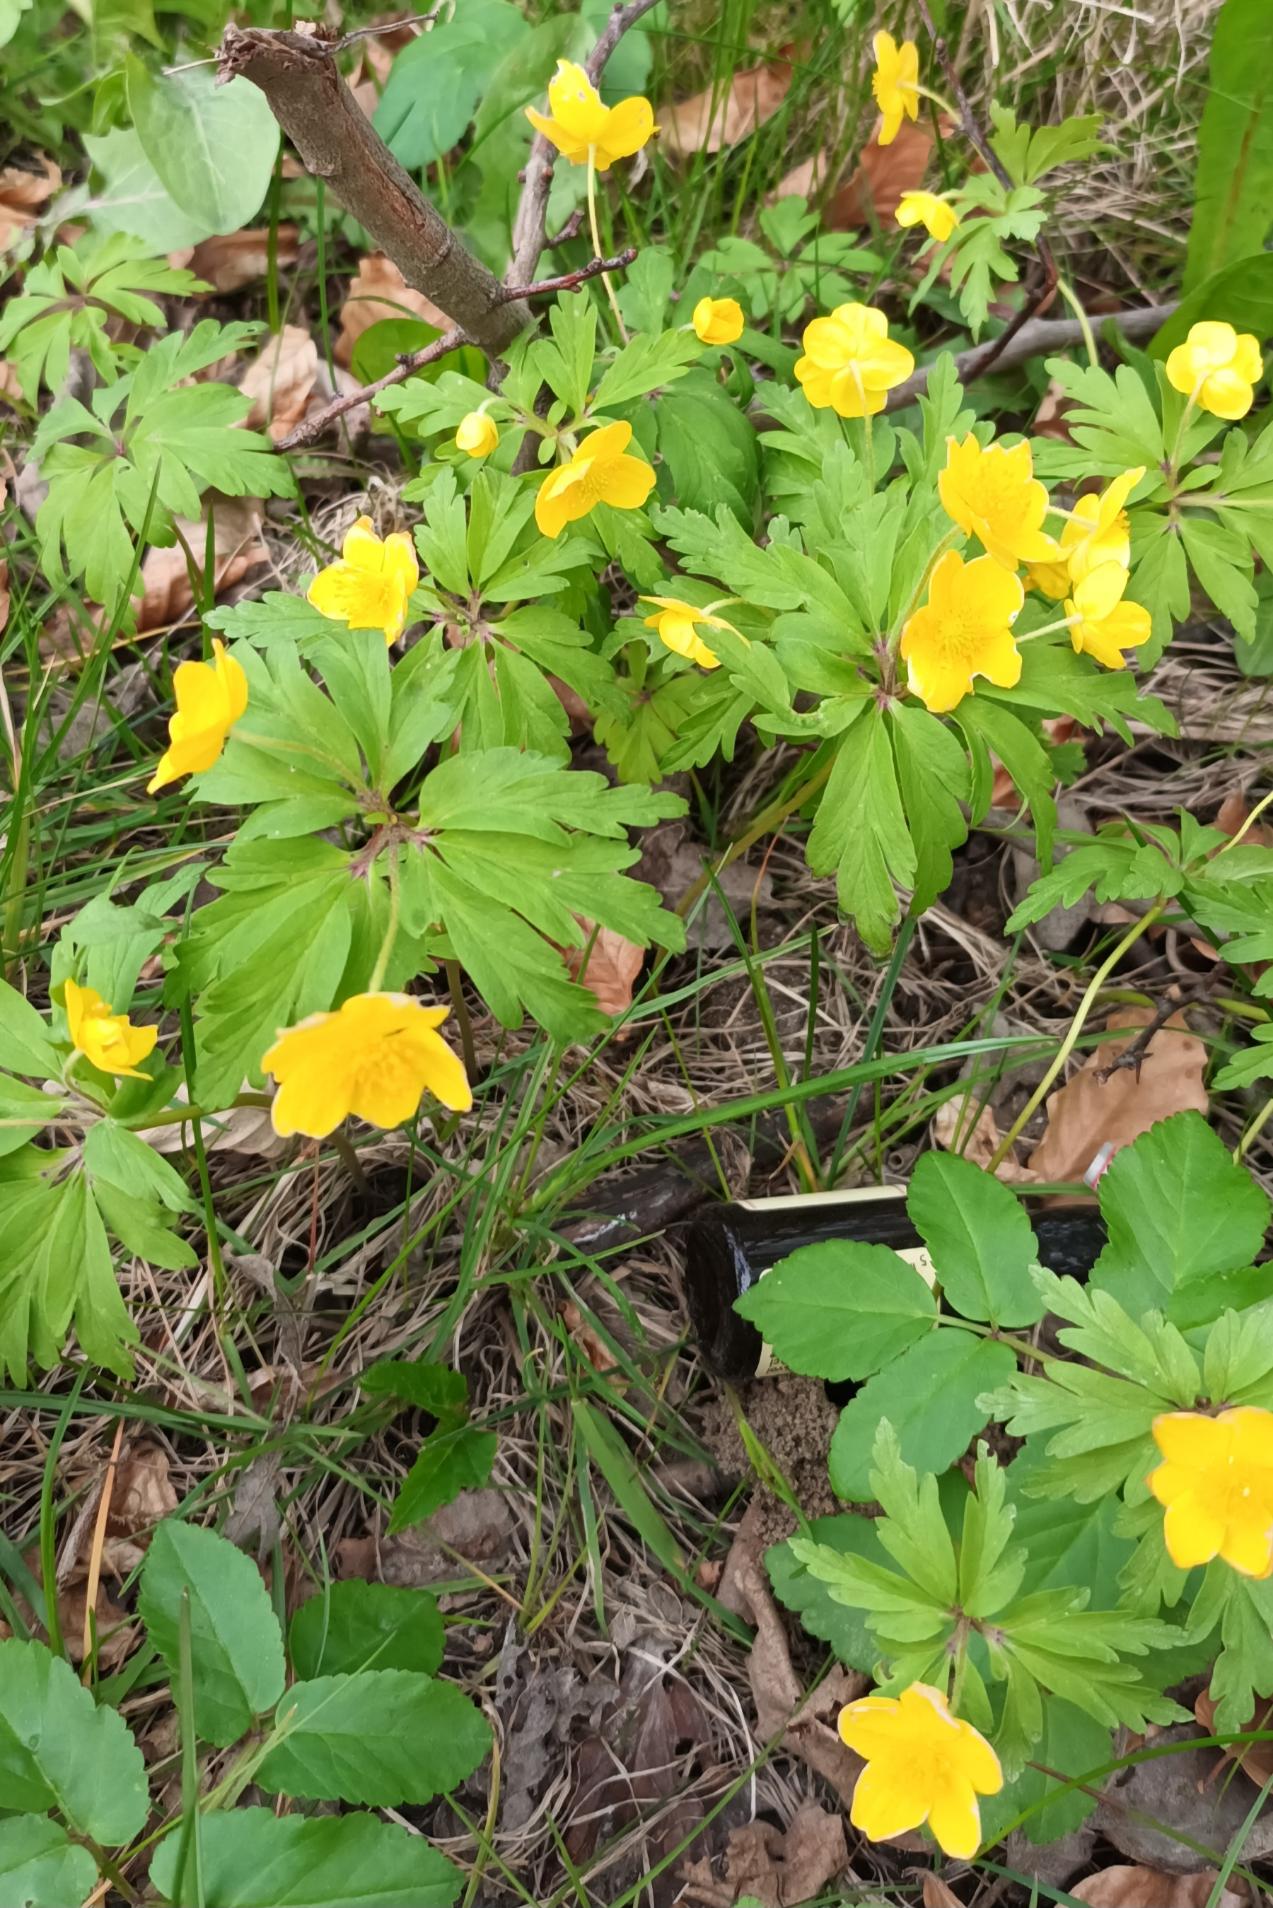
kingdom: Plantae
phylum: Tracheophyta
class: Magnoliopsida
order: Ranunculales
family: Ranunculaceae
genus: Anemone
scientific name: Anemone ranunculoides
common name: Gul anemone
